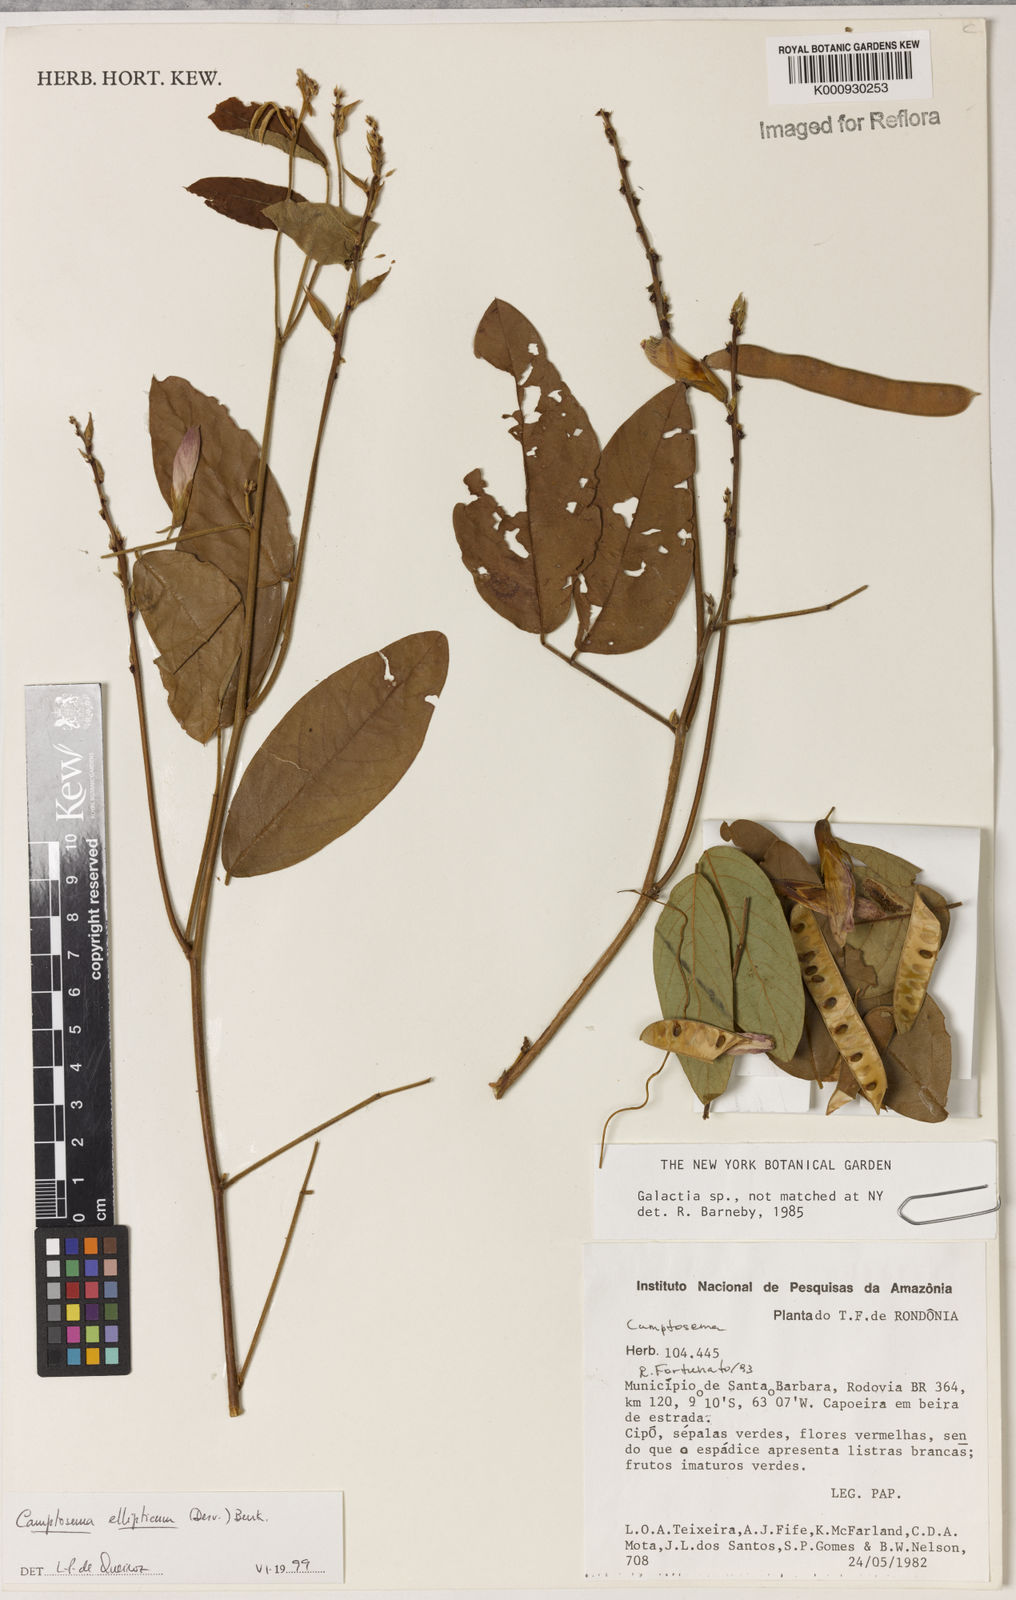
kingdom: Plantae
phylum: Tracheophyta
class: Magnoliopsida
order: Fabales
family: Fabaceae
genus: Camptosema
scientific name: Camptosema
